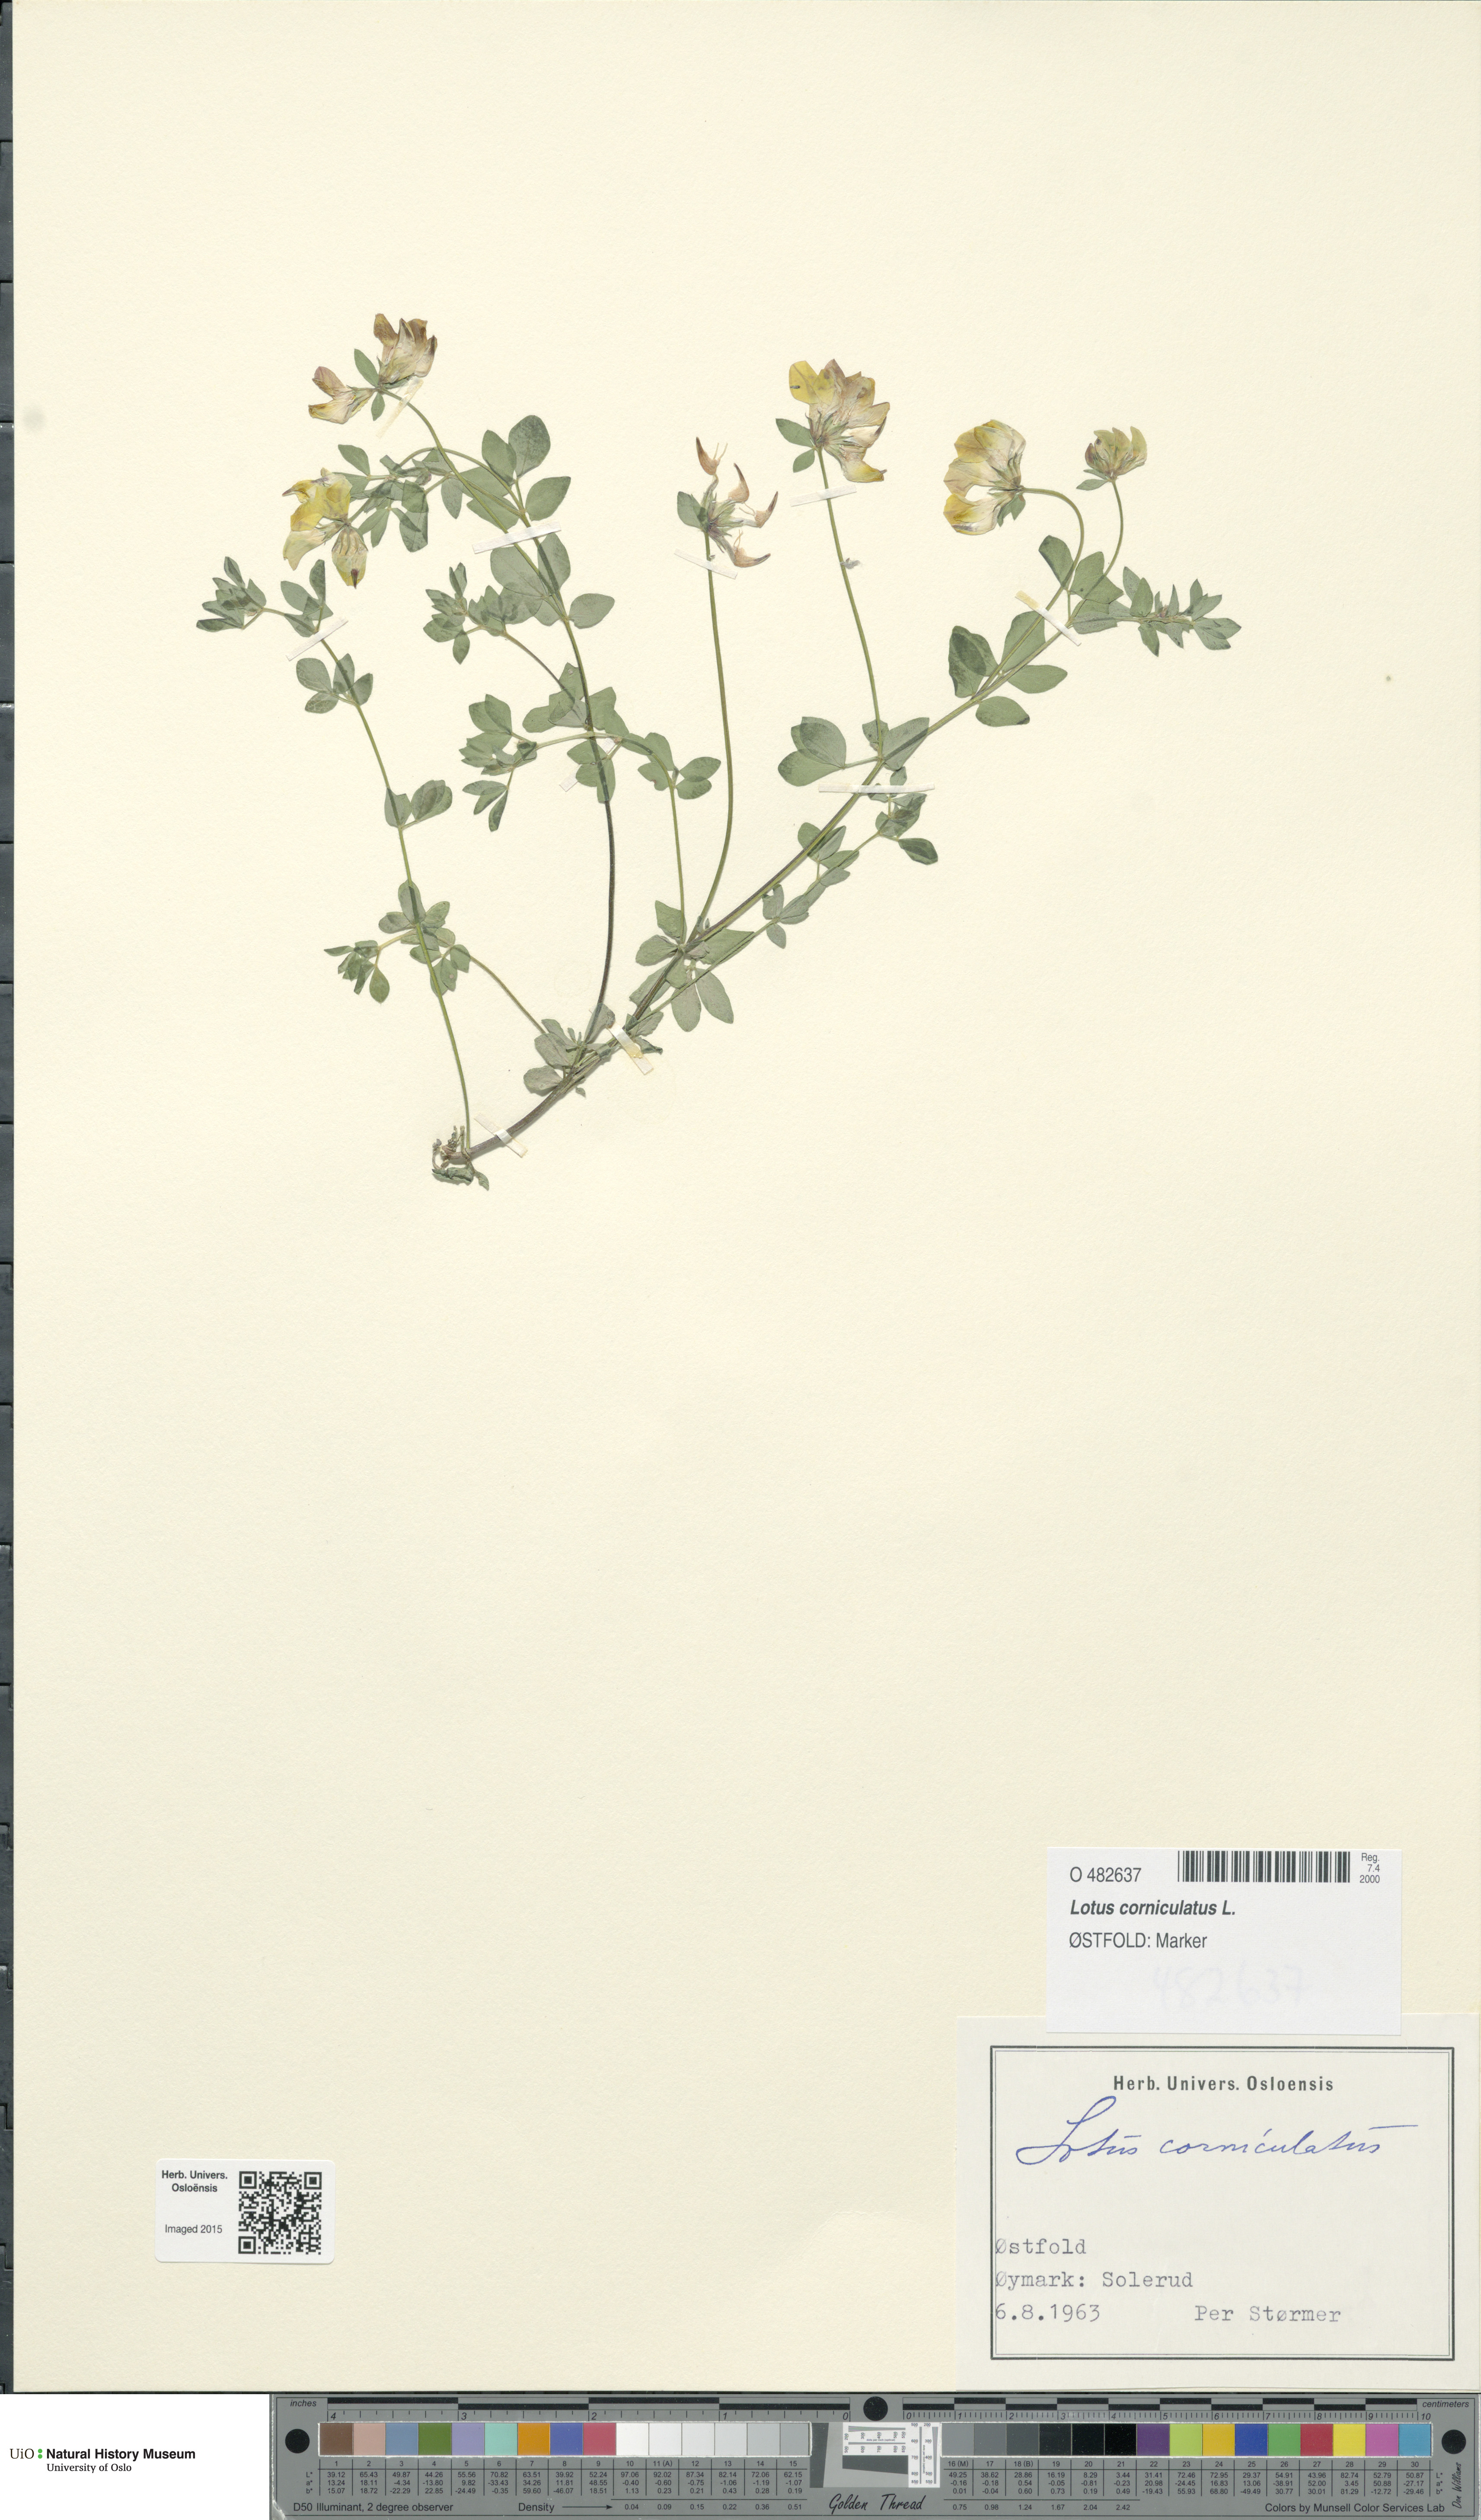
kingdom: Plantae
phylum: Tracheophyta
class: Magnoliopsida
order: Fabales
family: Fabaceae
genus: Lotus
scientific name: Lotus corniculatus
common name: Common bird's-foot-trefoil
